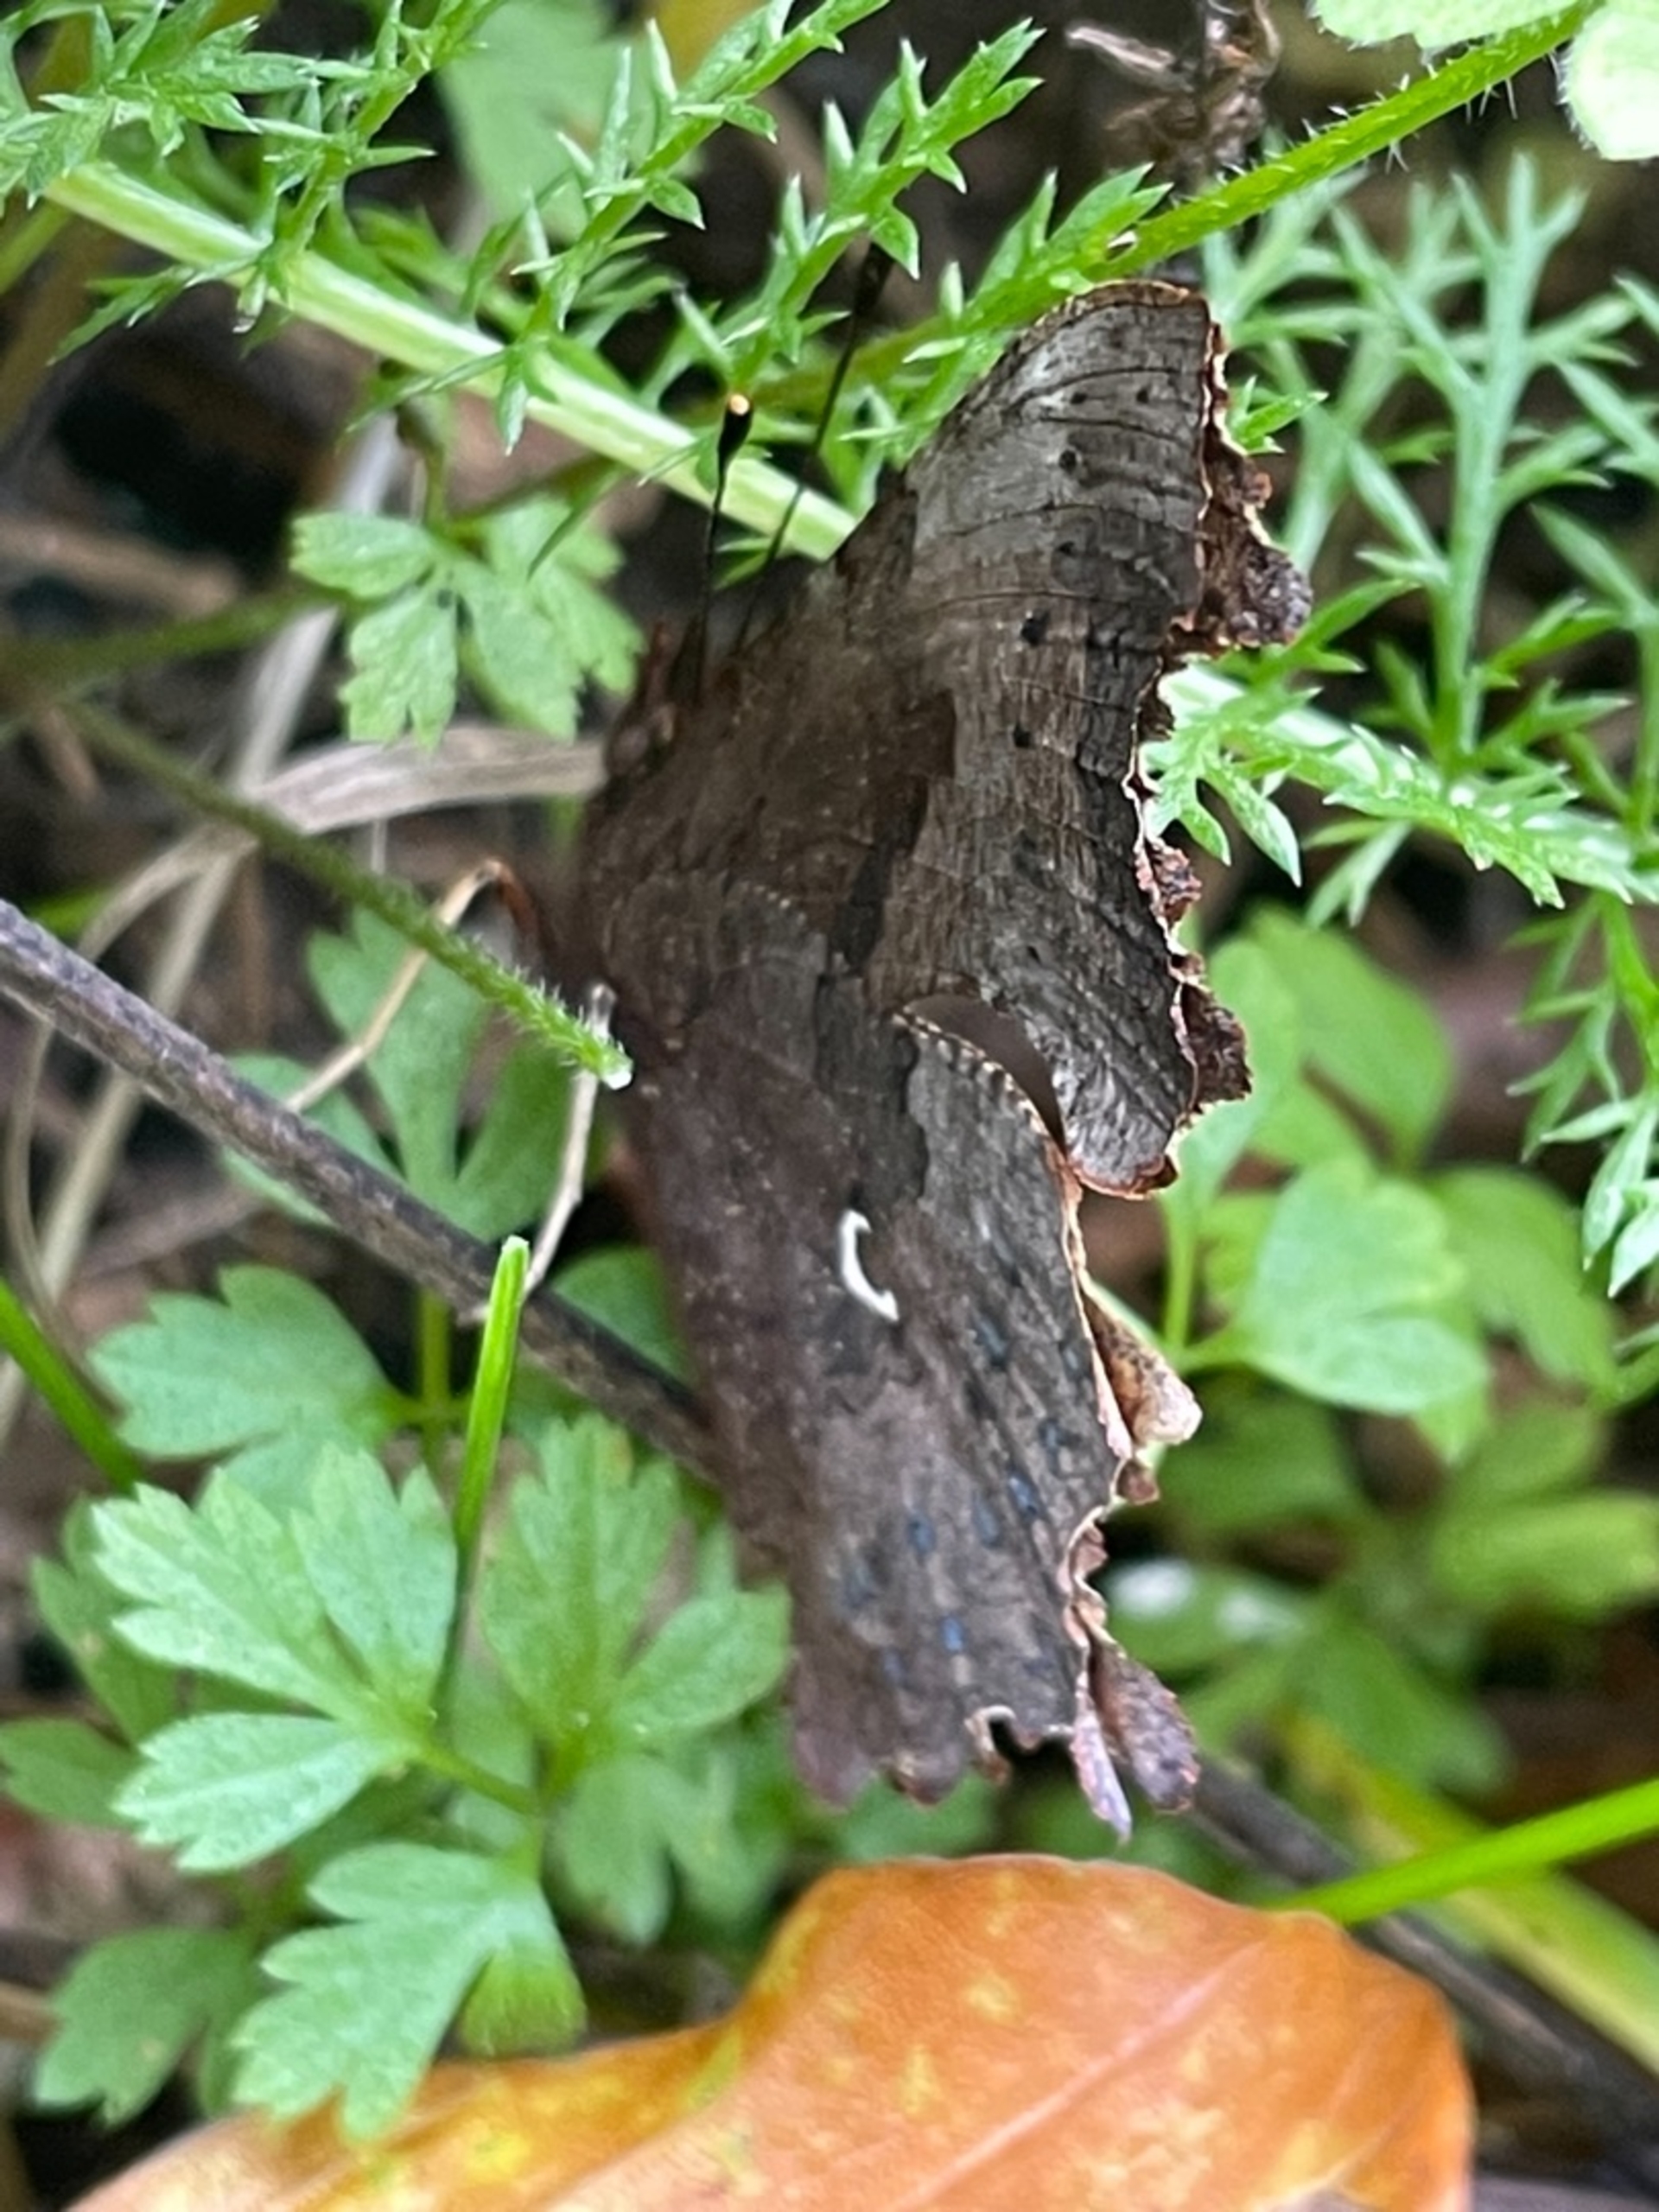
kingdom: Animalia
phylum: Arthropoda
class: Insecta
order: Lepidoptera
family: Nymphalidae
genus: Polygonia
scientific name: Polygonia c-album
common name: Det hvide C
